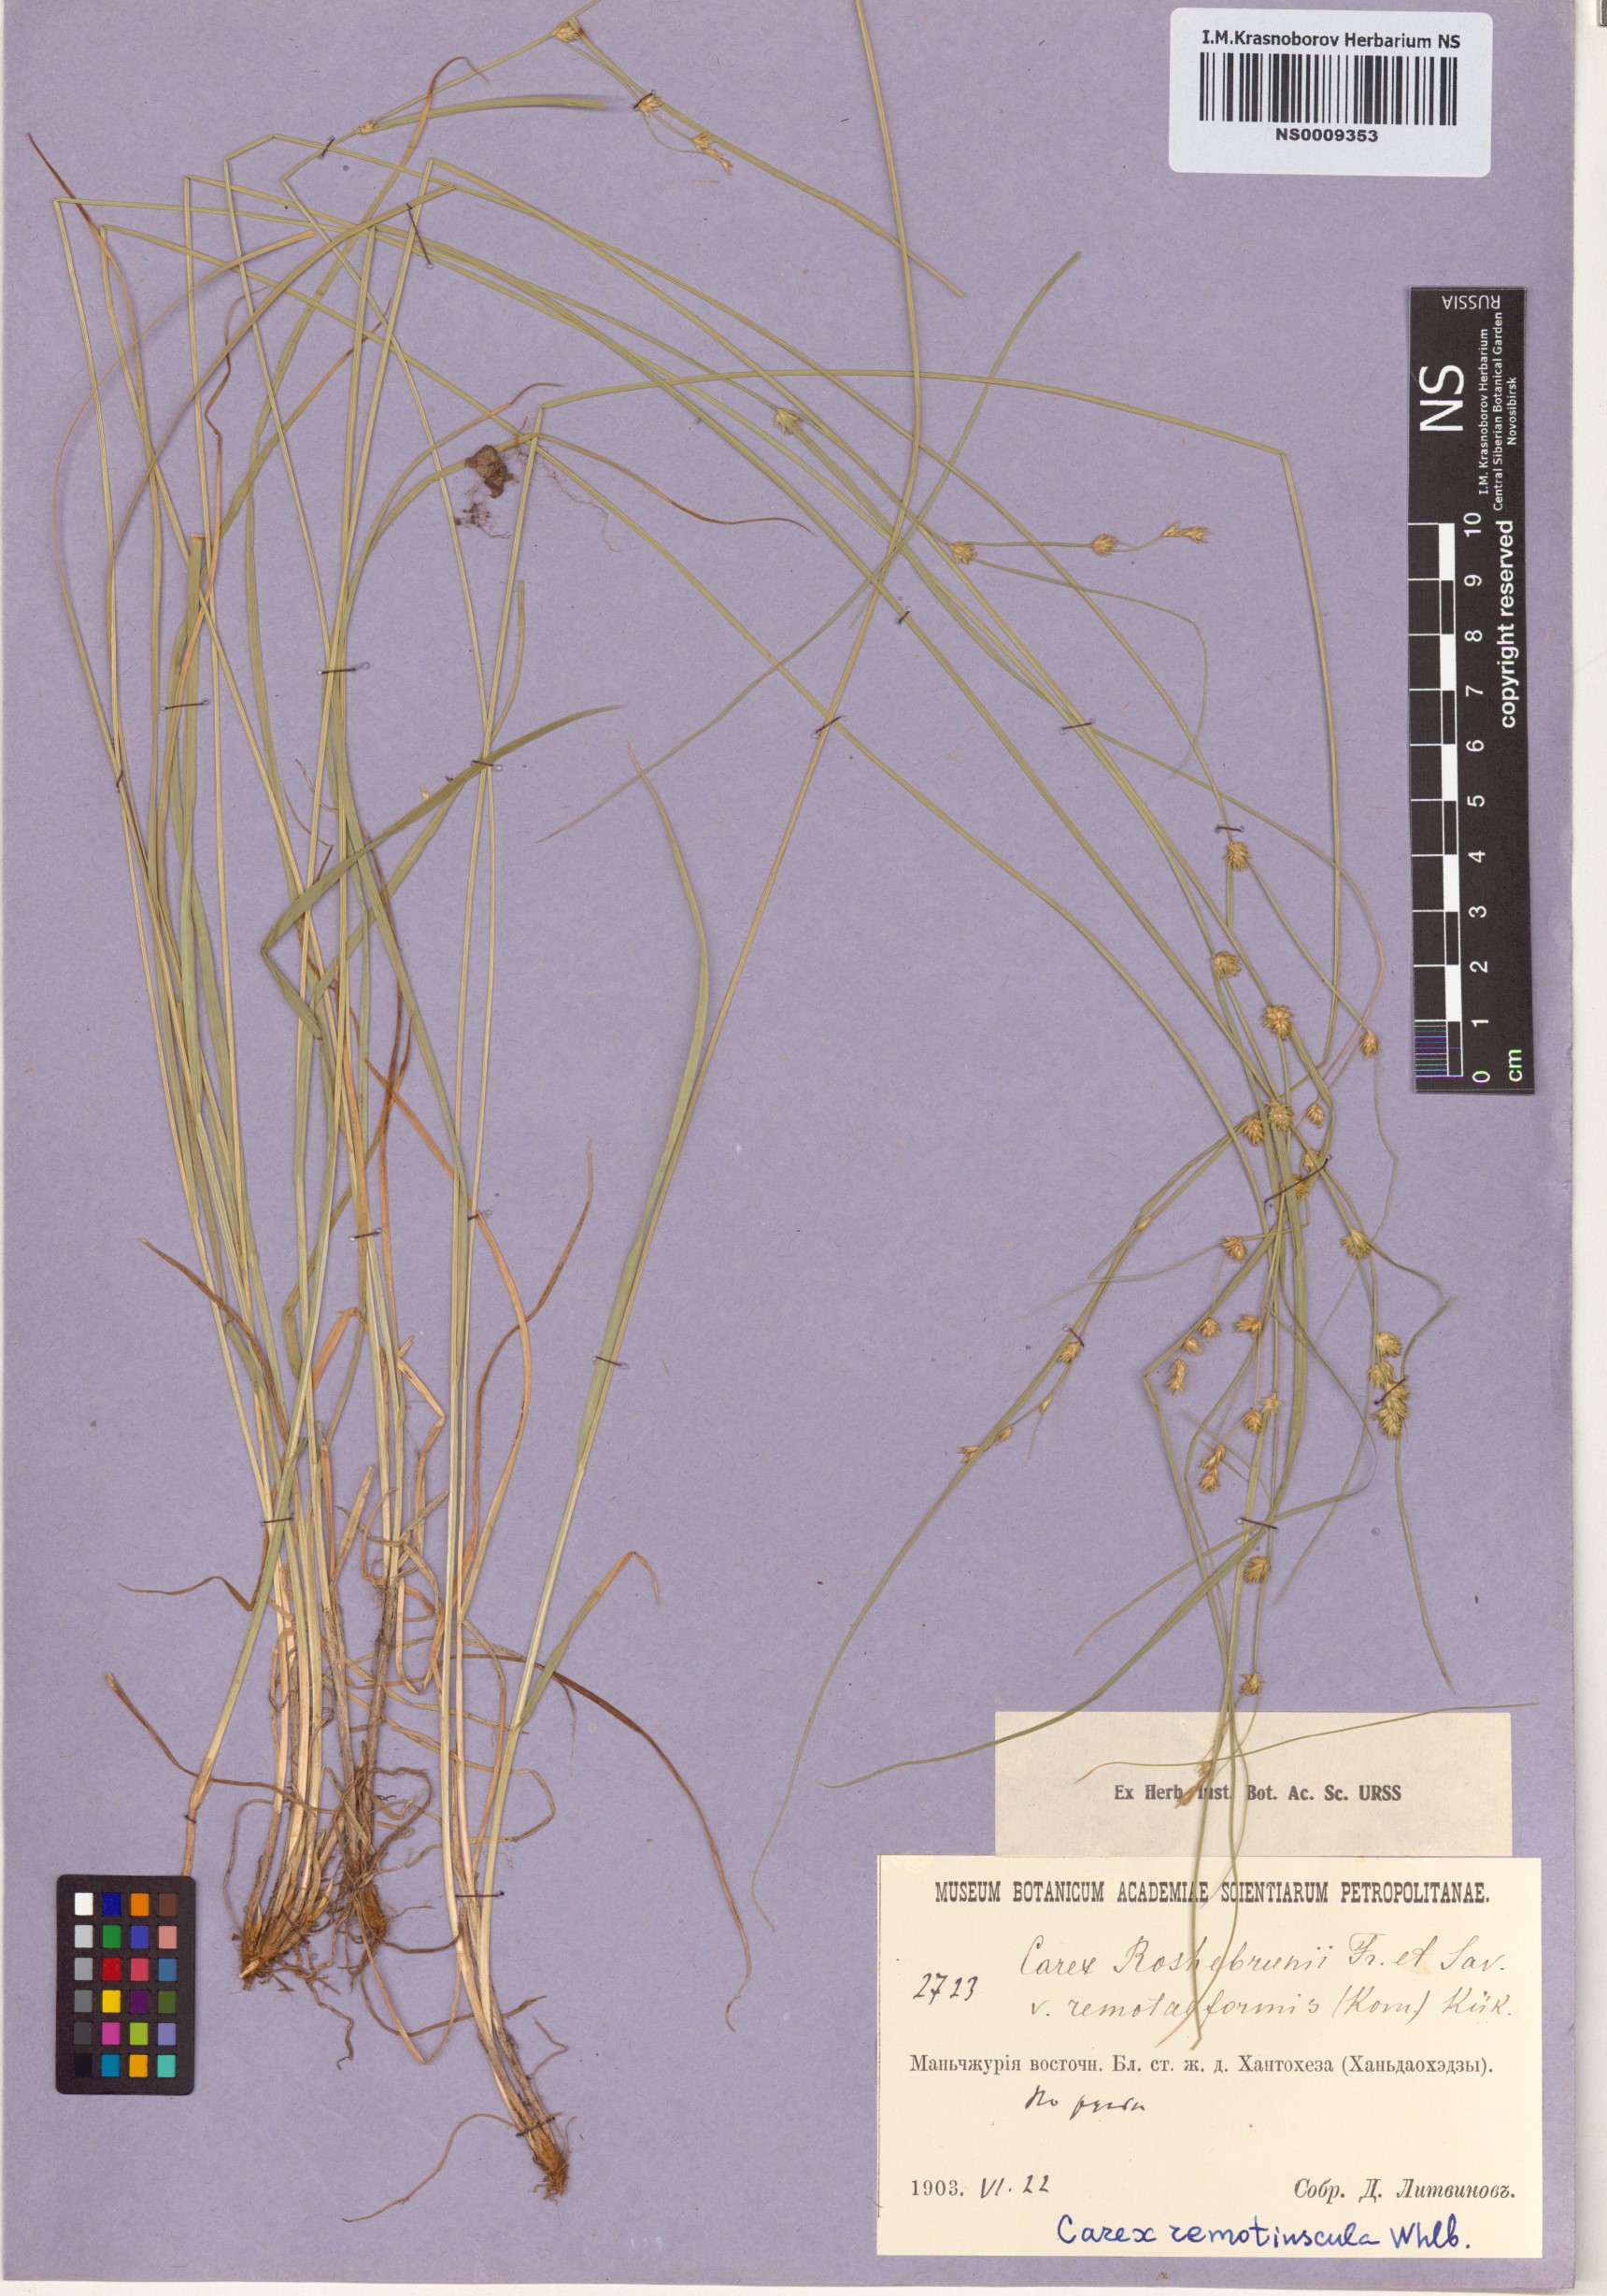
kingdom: Plantae
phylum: Tracheophyta
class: Liliopsida
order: Poales
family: Cyperaceae
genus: Carex
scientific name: Carex remotiuscula
